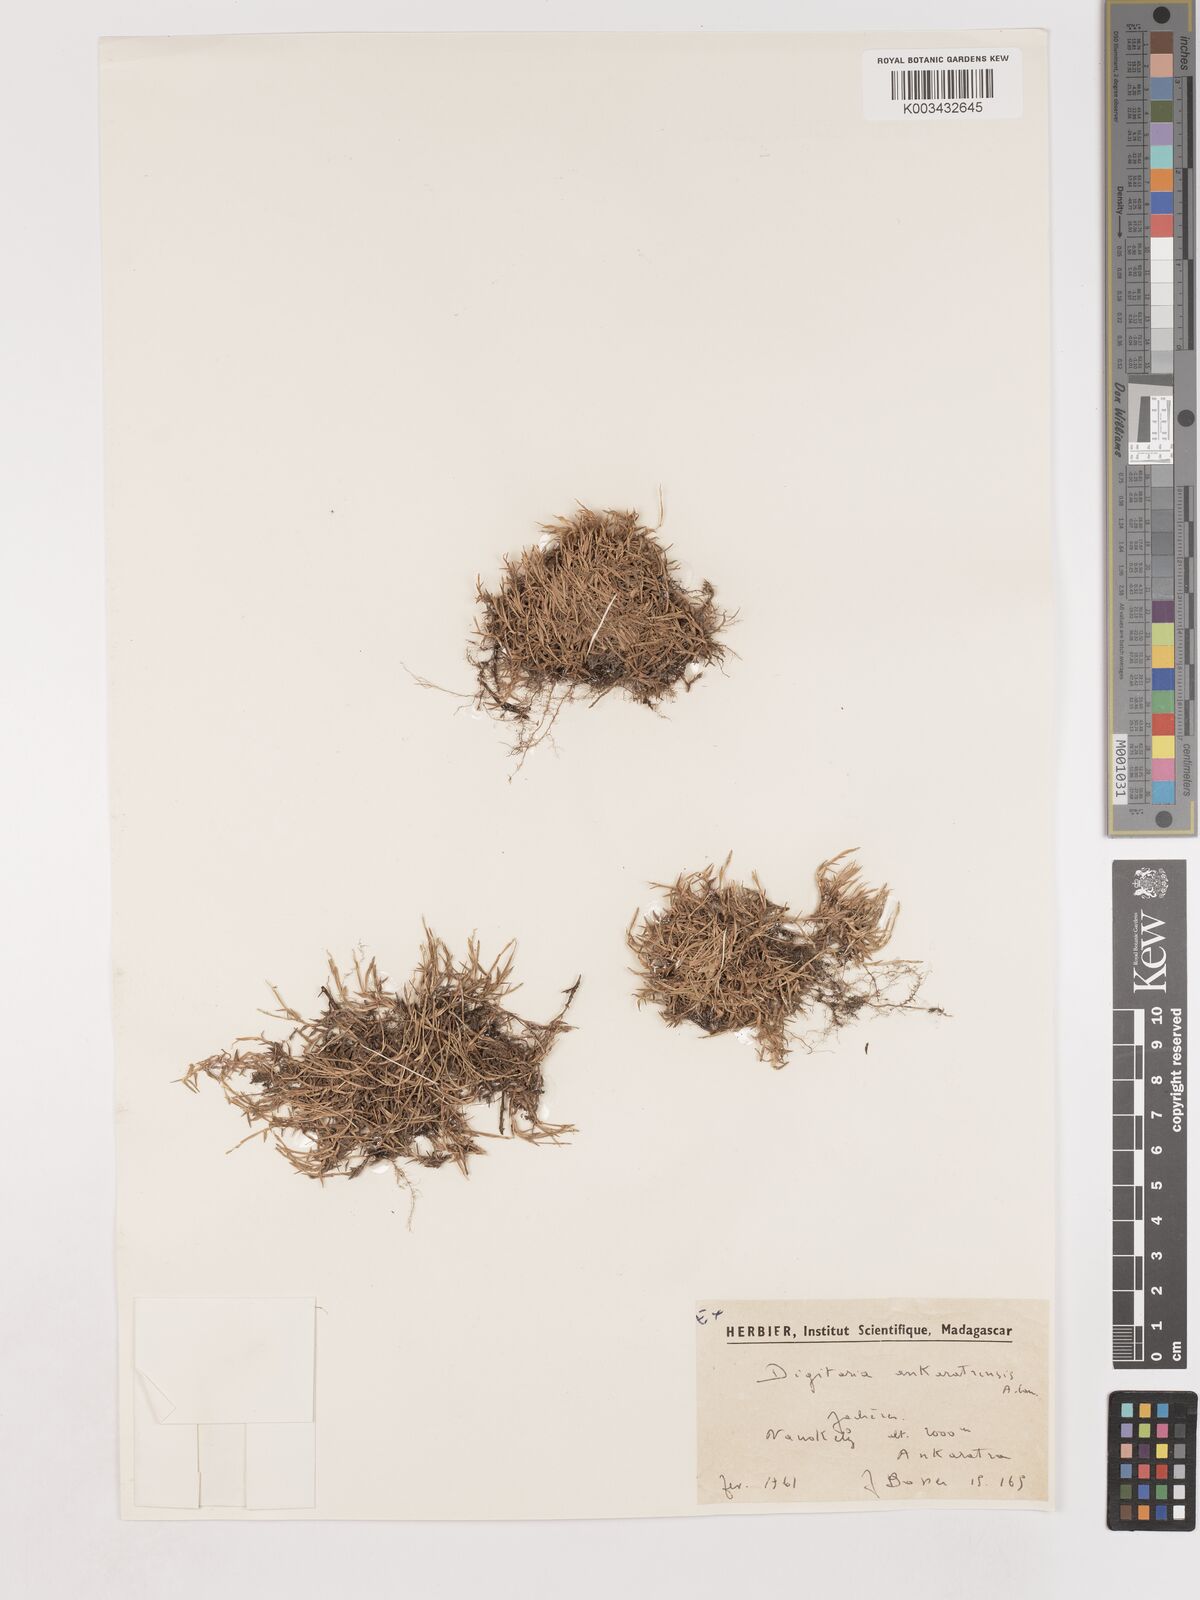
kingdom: Plantae
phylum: Tracheophyta
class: Liliopsida
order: Poales
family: Poaceae
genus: Digitaria
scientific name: Digitaria ankaratrensis
